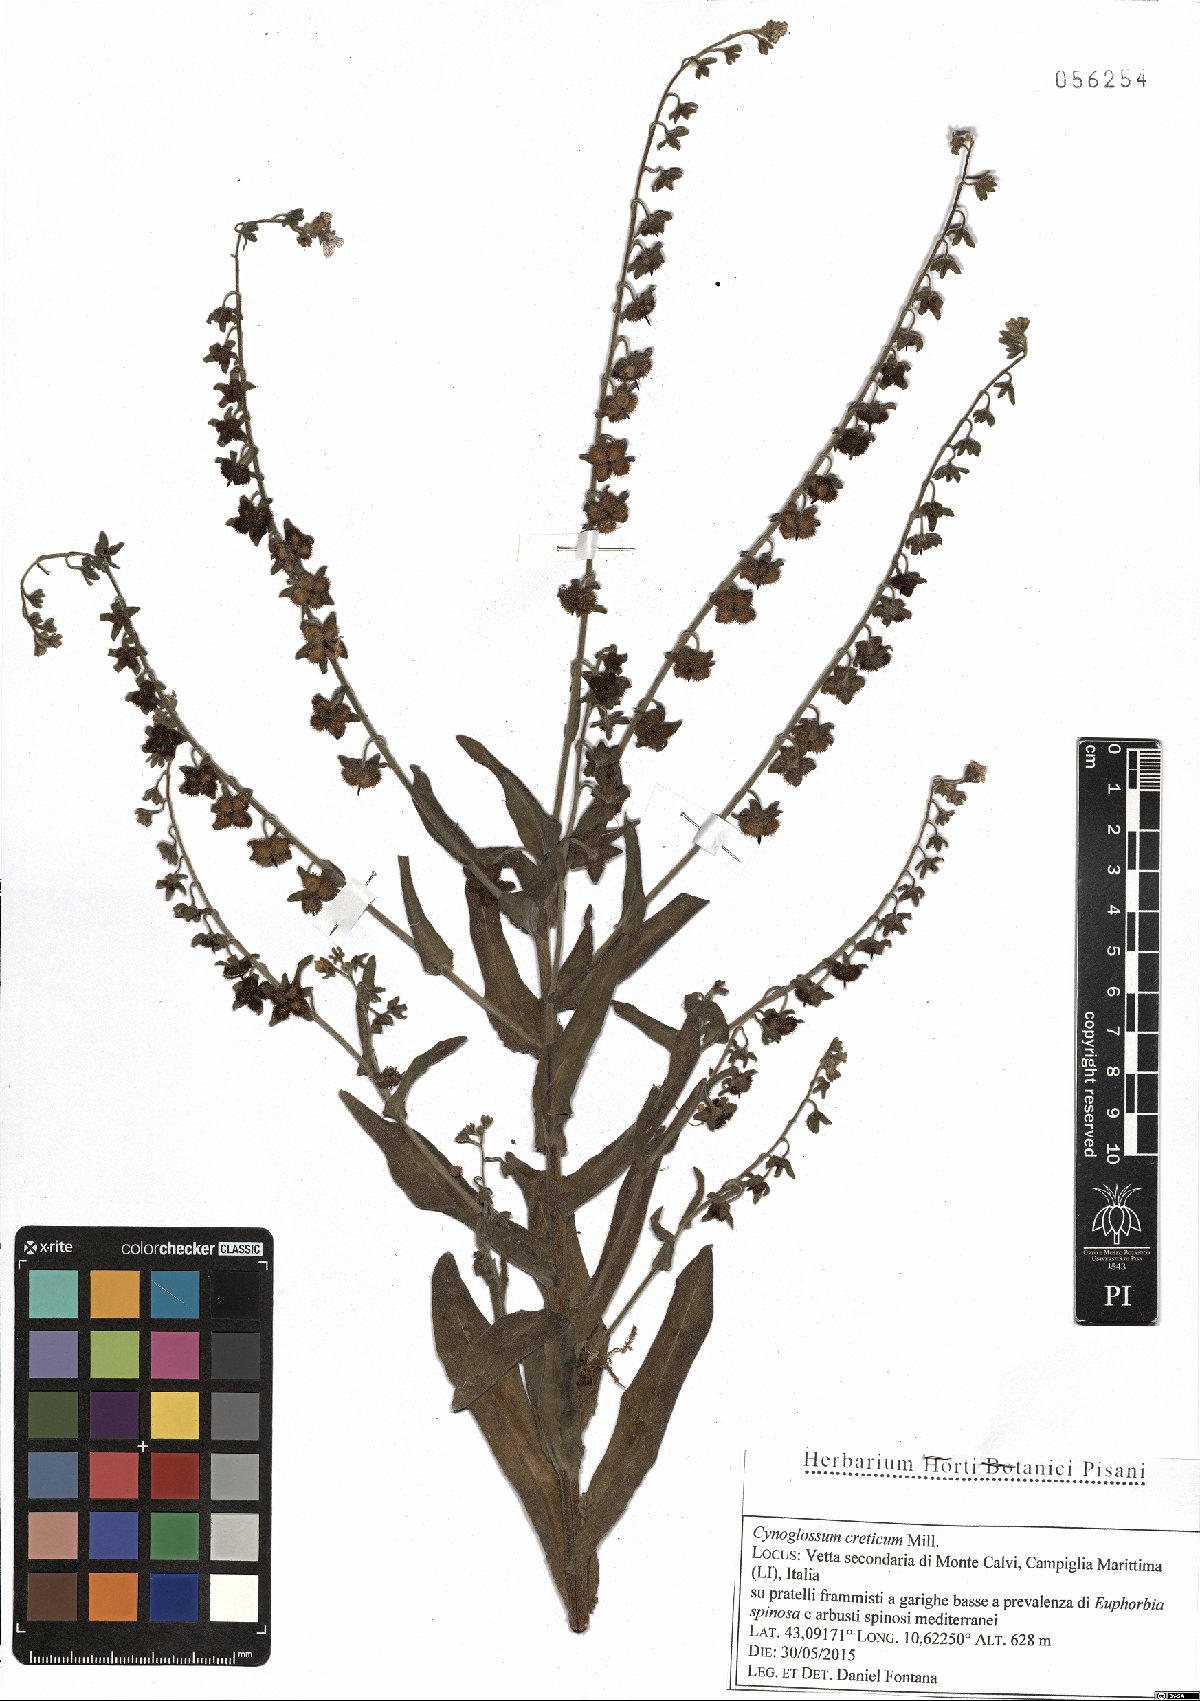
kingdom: Plantae
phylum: Tracheophyta
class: Magnoliopsida
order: Boraginales
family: Boraginaceae
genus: Cynoglossum
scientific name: Cynoglossum creticum
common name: Blue hound's tongue
